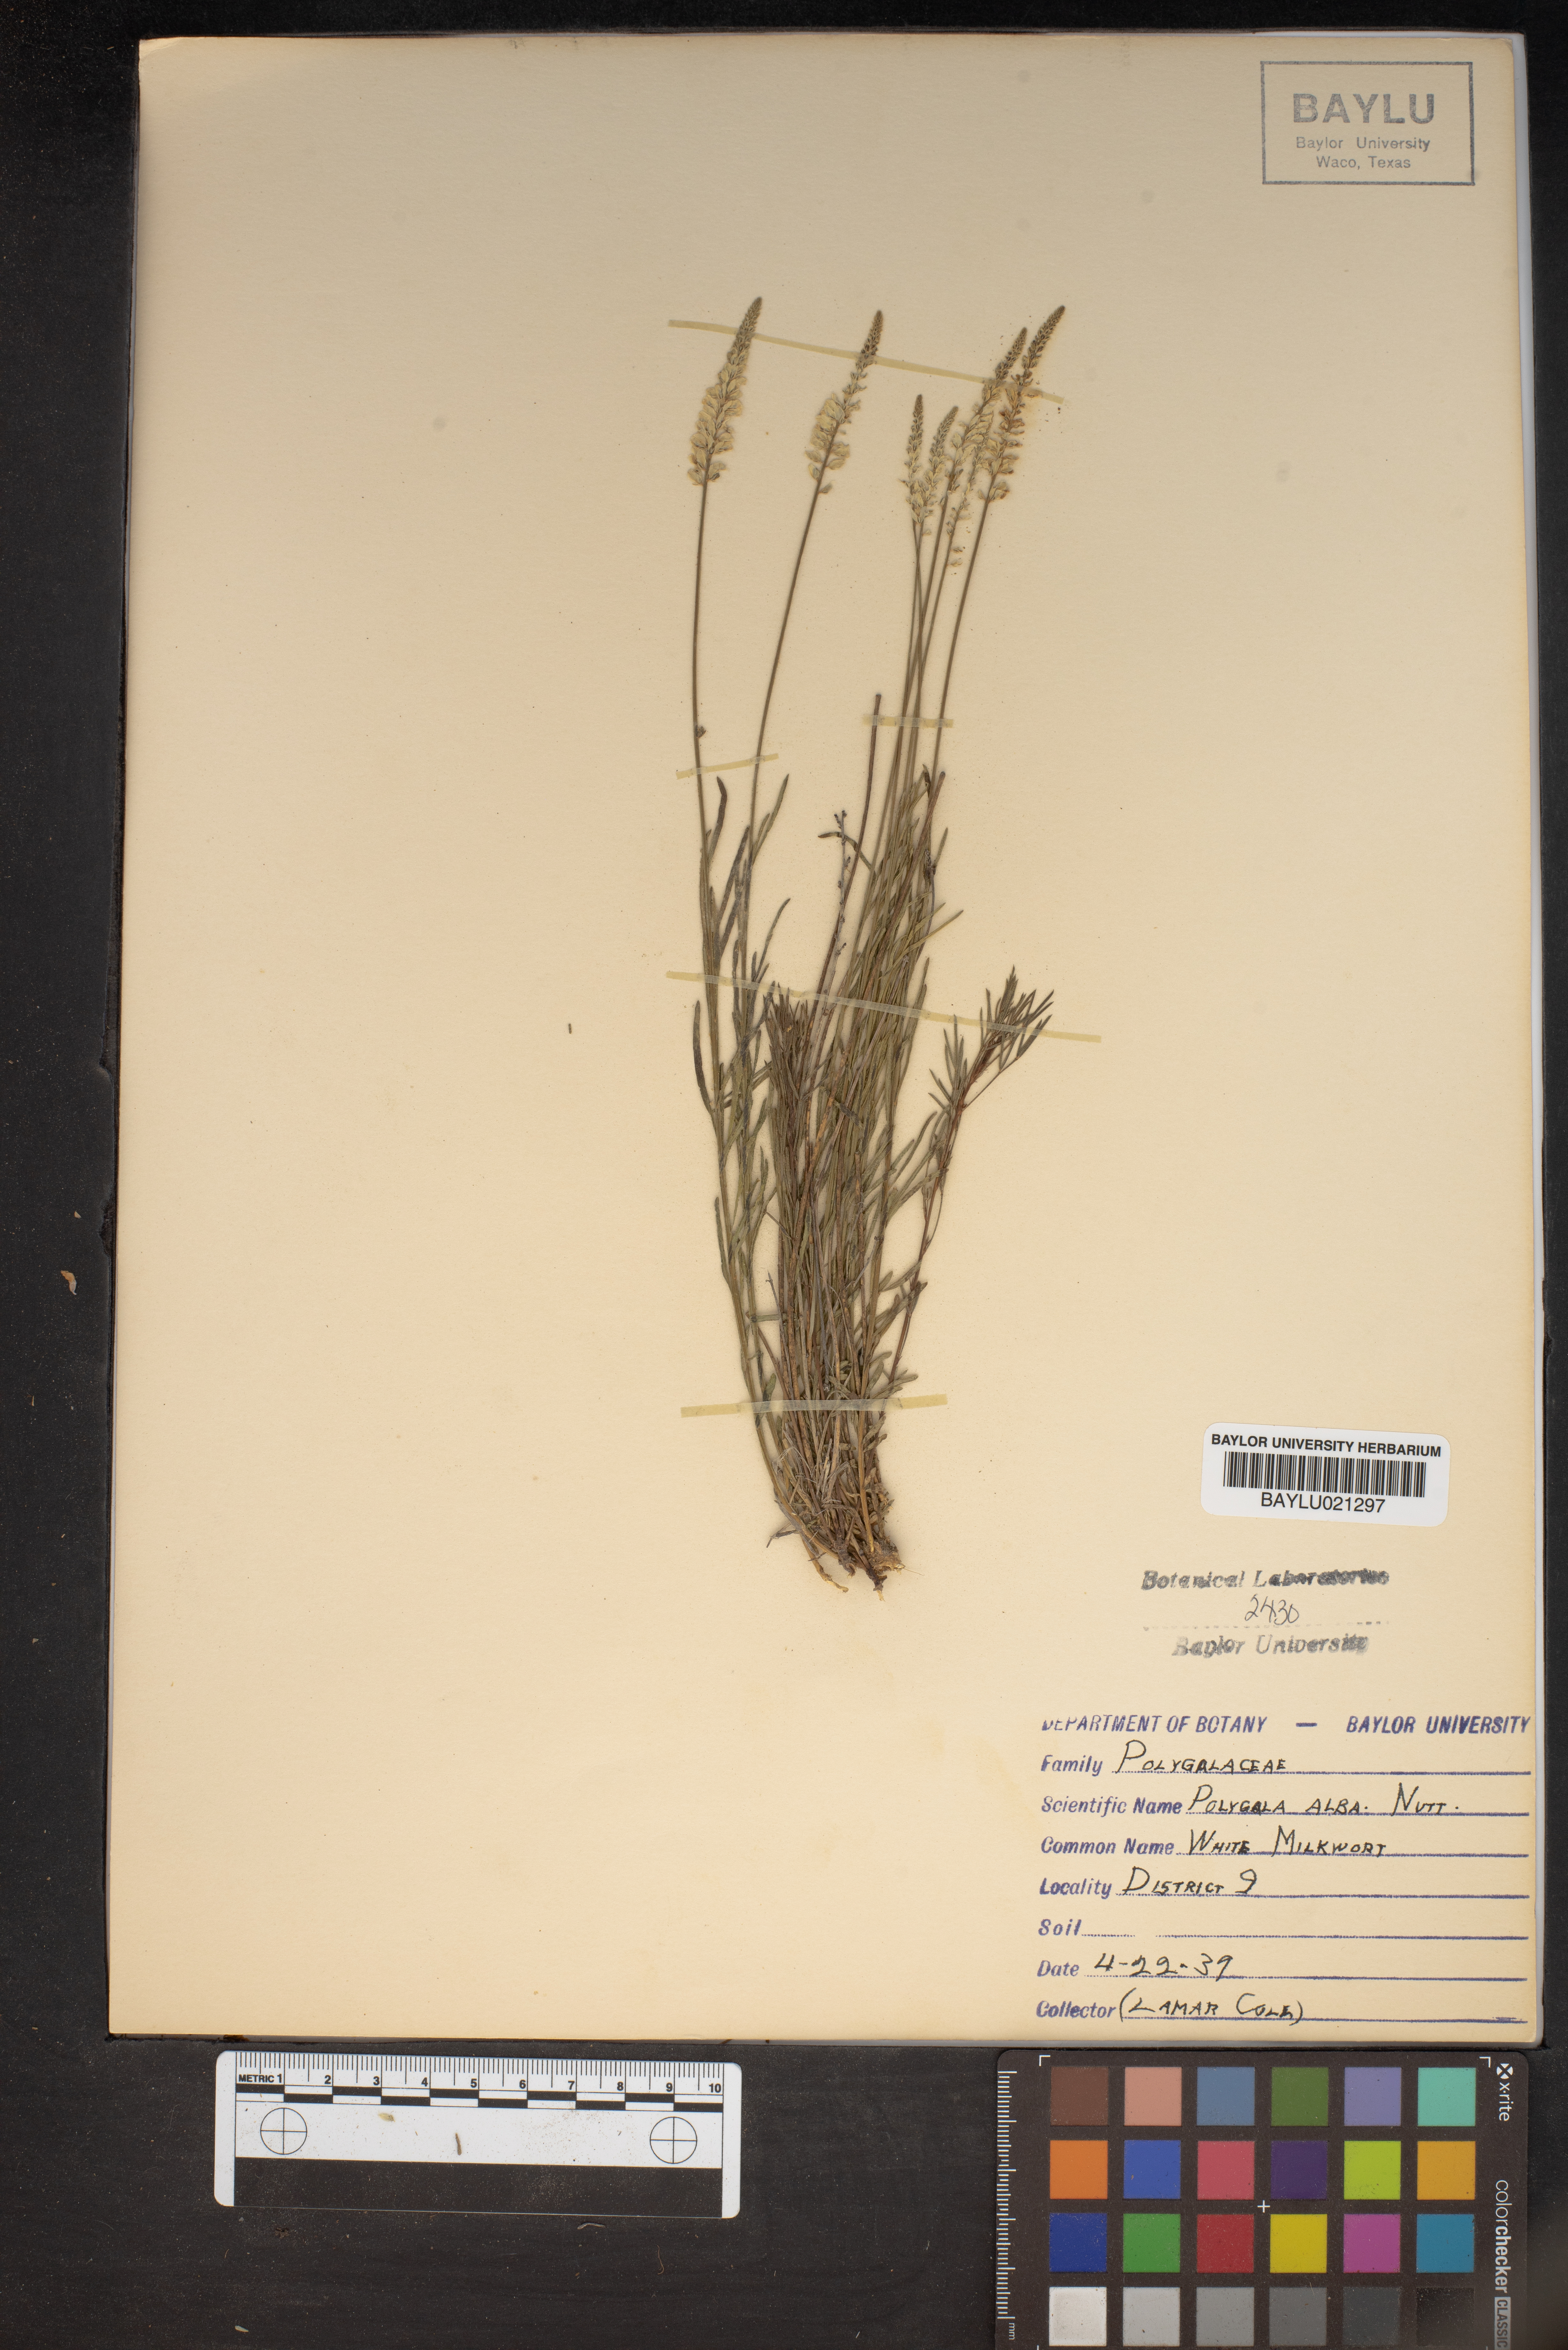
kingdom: Plantae
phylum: Tracheophyta
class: Magnoliopsida
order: Fabales
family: Polygalaceae
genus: Polygala
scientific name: Polygala alba
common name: White milkwort
